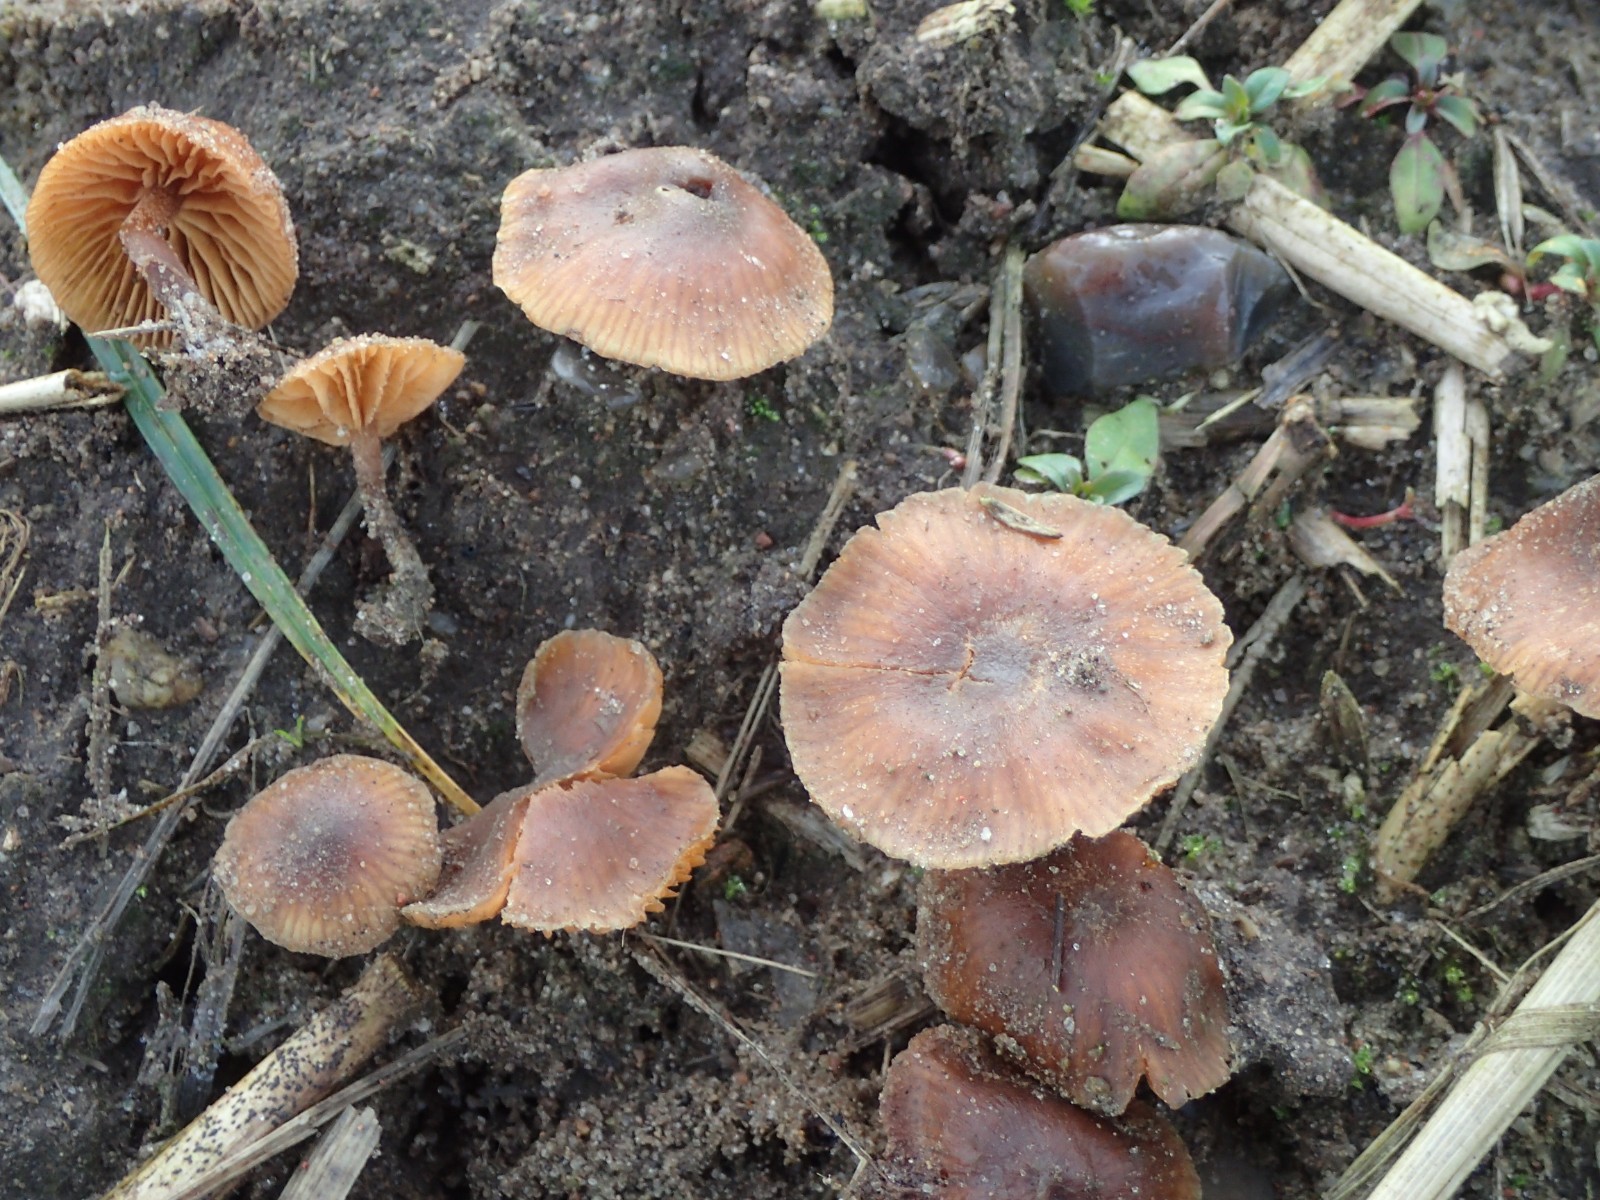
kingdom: Fungi
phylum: Basidiomycota
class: Agaricomycetes
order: Agaricales
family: Tubariaceae
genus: Tubaria
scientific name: Tubaria furfuracea
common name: kliddet fnughat
